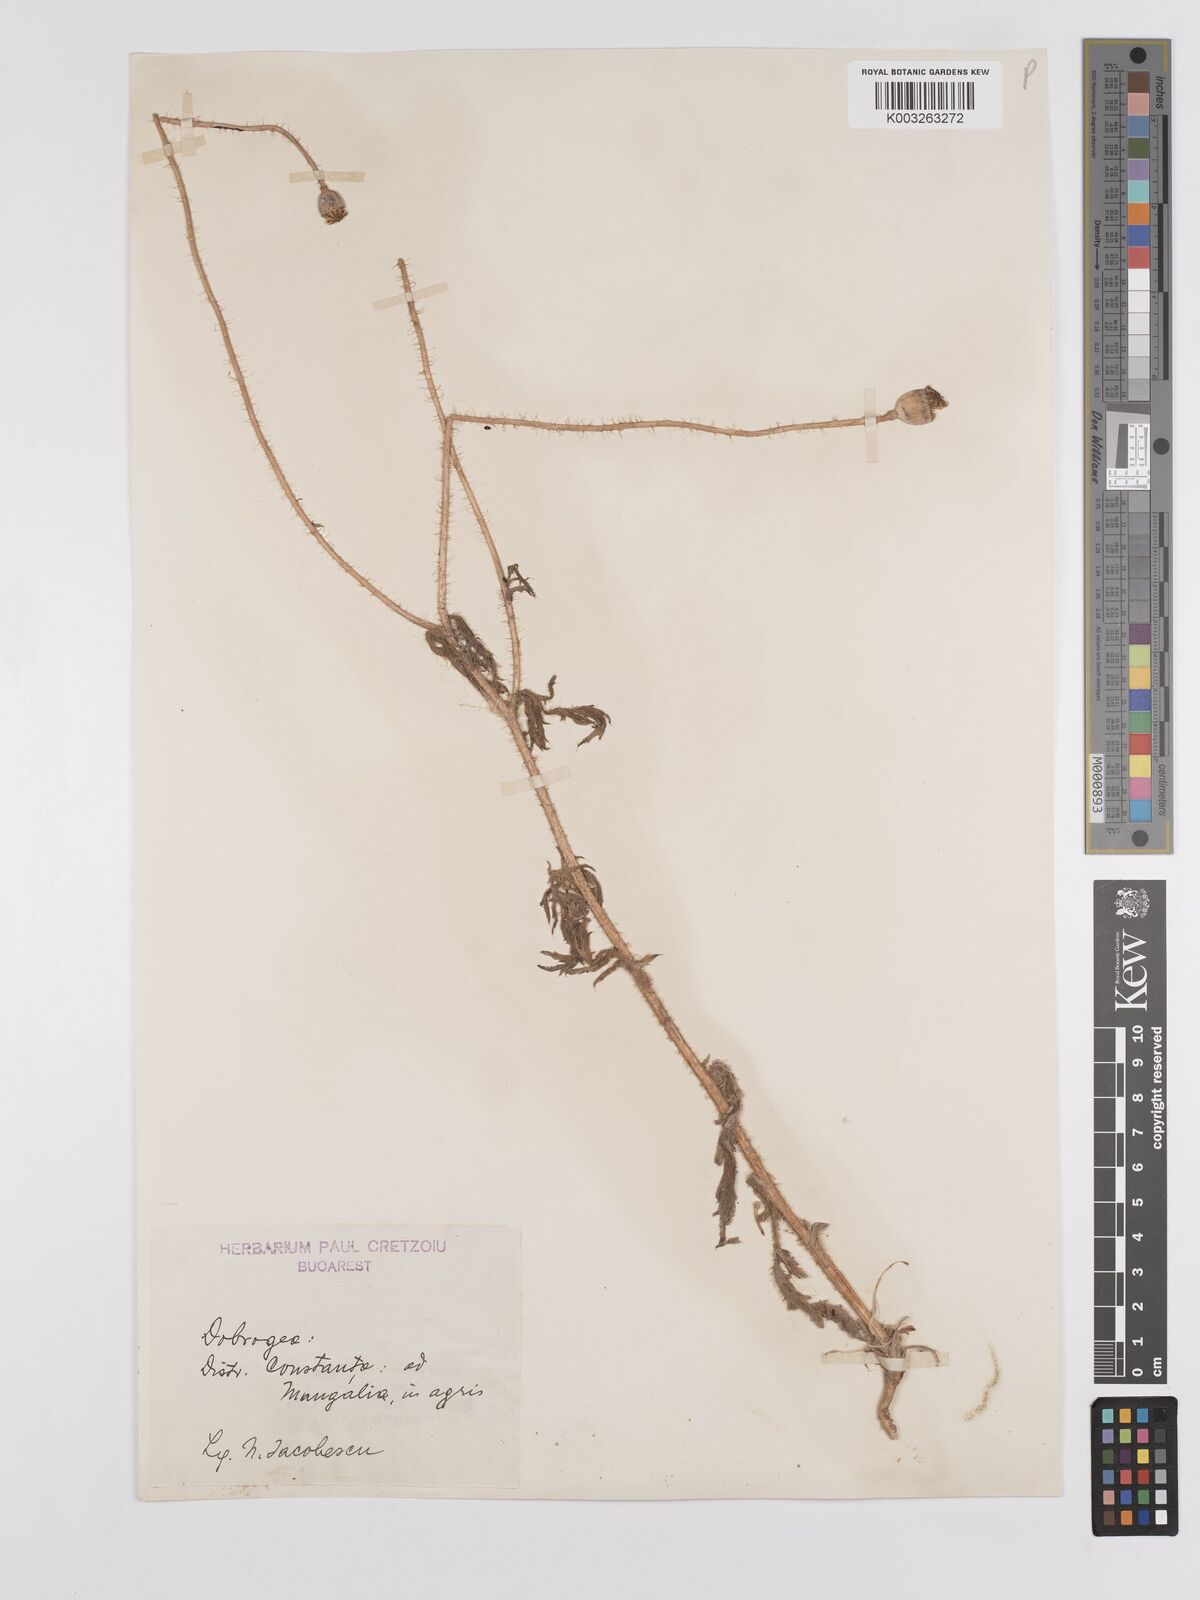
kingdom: Plantae
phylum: Tracheophyta
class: Magnoliopsida
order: Ranunculales
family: Papaveraceae
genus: Papaver
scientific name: Papaver
